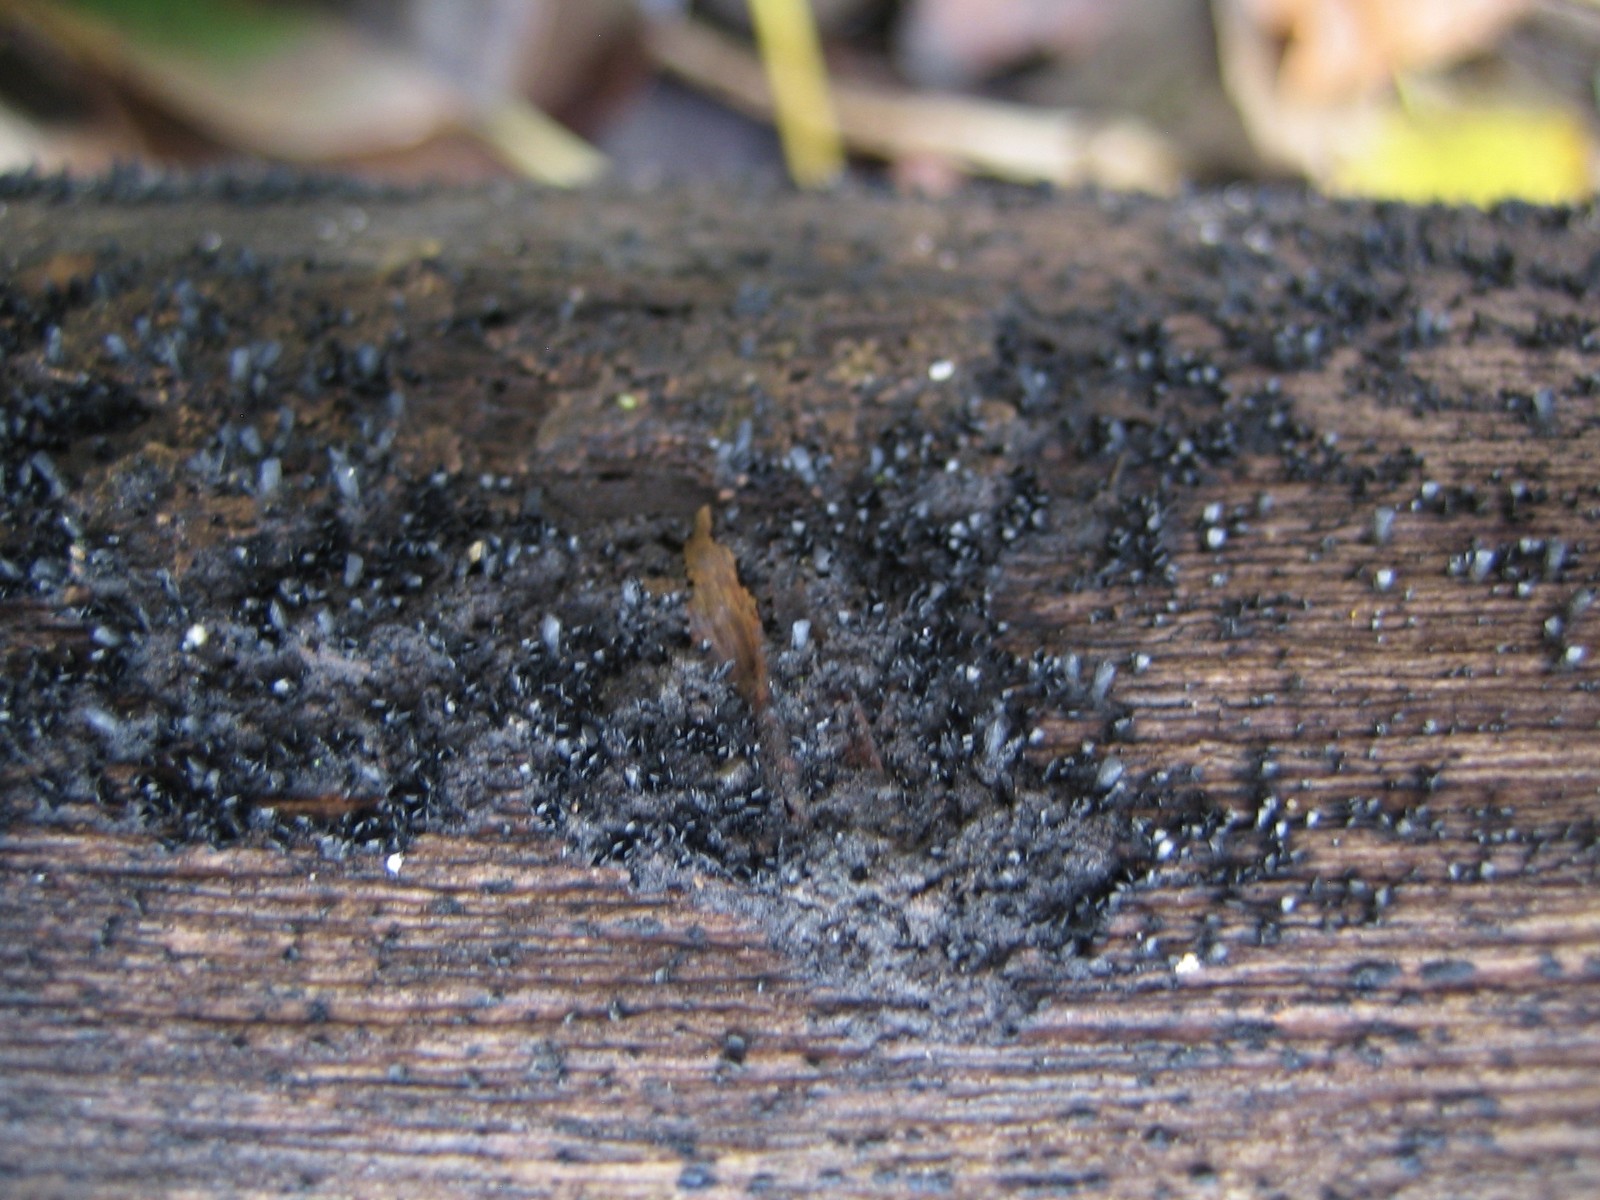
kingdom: Fungi
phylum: Ascomycota
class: Eurotiomycetes
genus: Glyphium
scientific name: Glyphium elatum
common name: kuløkse
